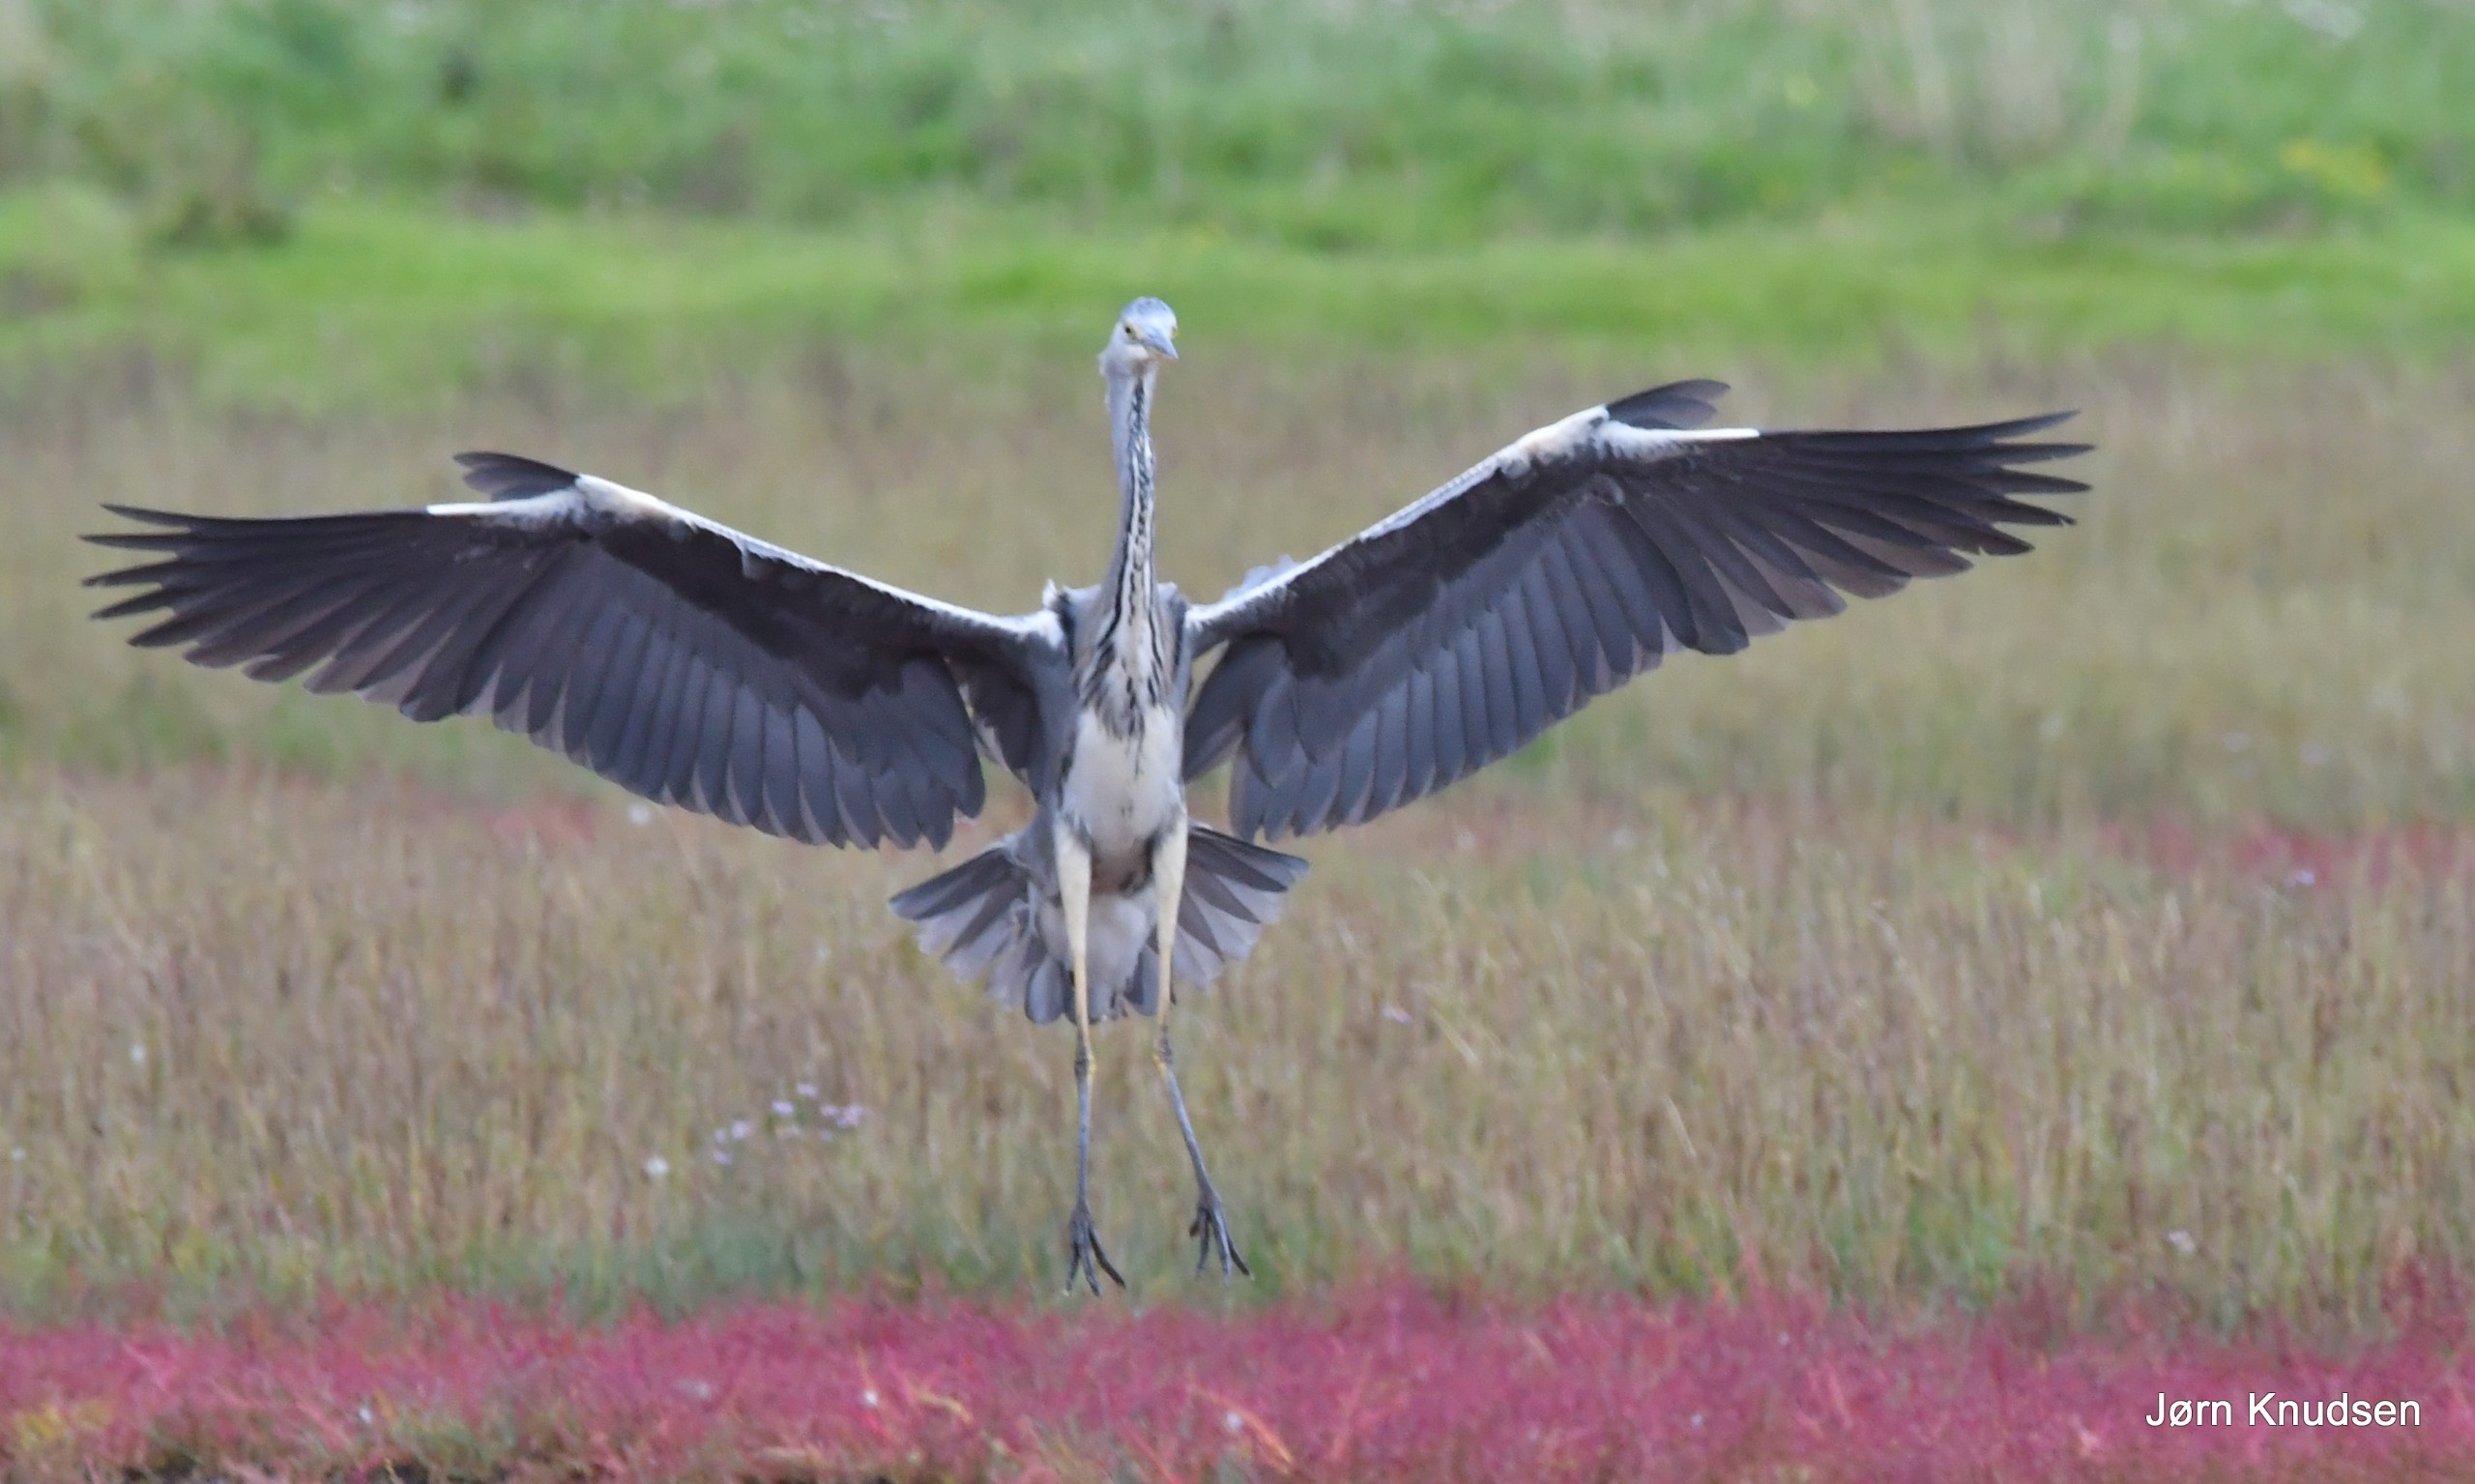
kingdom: Animalia
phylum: Chordata
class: Aves
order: Pelecaniformes
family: Ardeidae
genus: Ardea
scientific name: Ardea cinerea
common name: Fiskehejre
